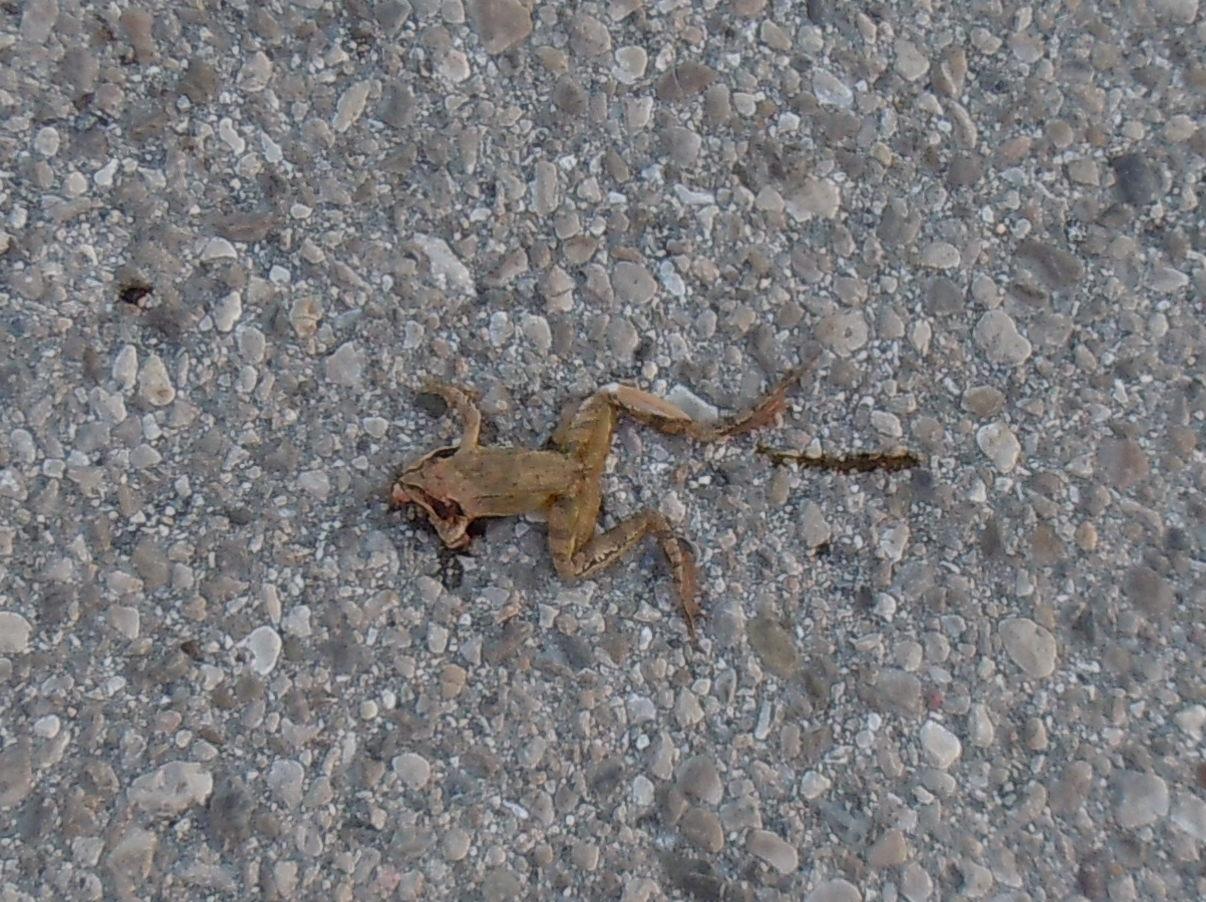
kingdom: Animalia
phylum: Chordata
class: Amphibia
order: Anura
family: Ranidae
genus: Rana
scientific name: Rana dalmatina
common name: Agile frog
